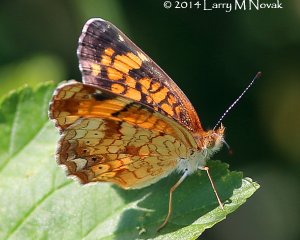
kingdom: Animalia
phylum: Arthropoda
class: Insecta
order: Lepidoptera
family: Nymphalidae
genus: Phyciodes
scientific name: Phyciodes tharos
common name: Pearl Crescent
